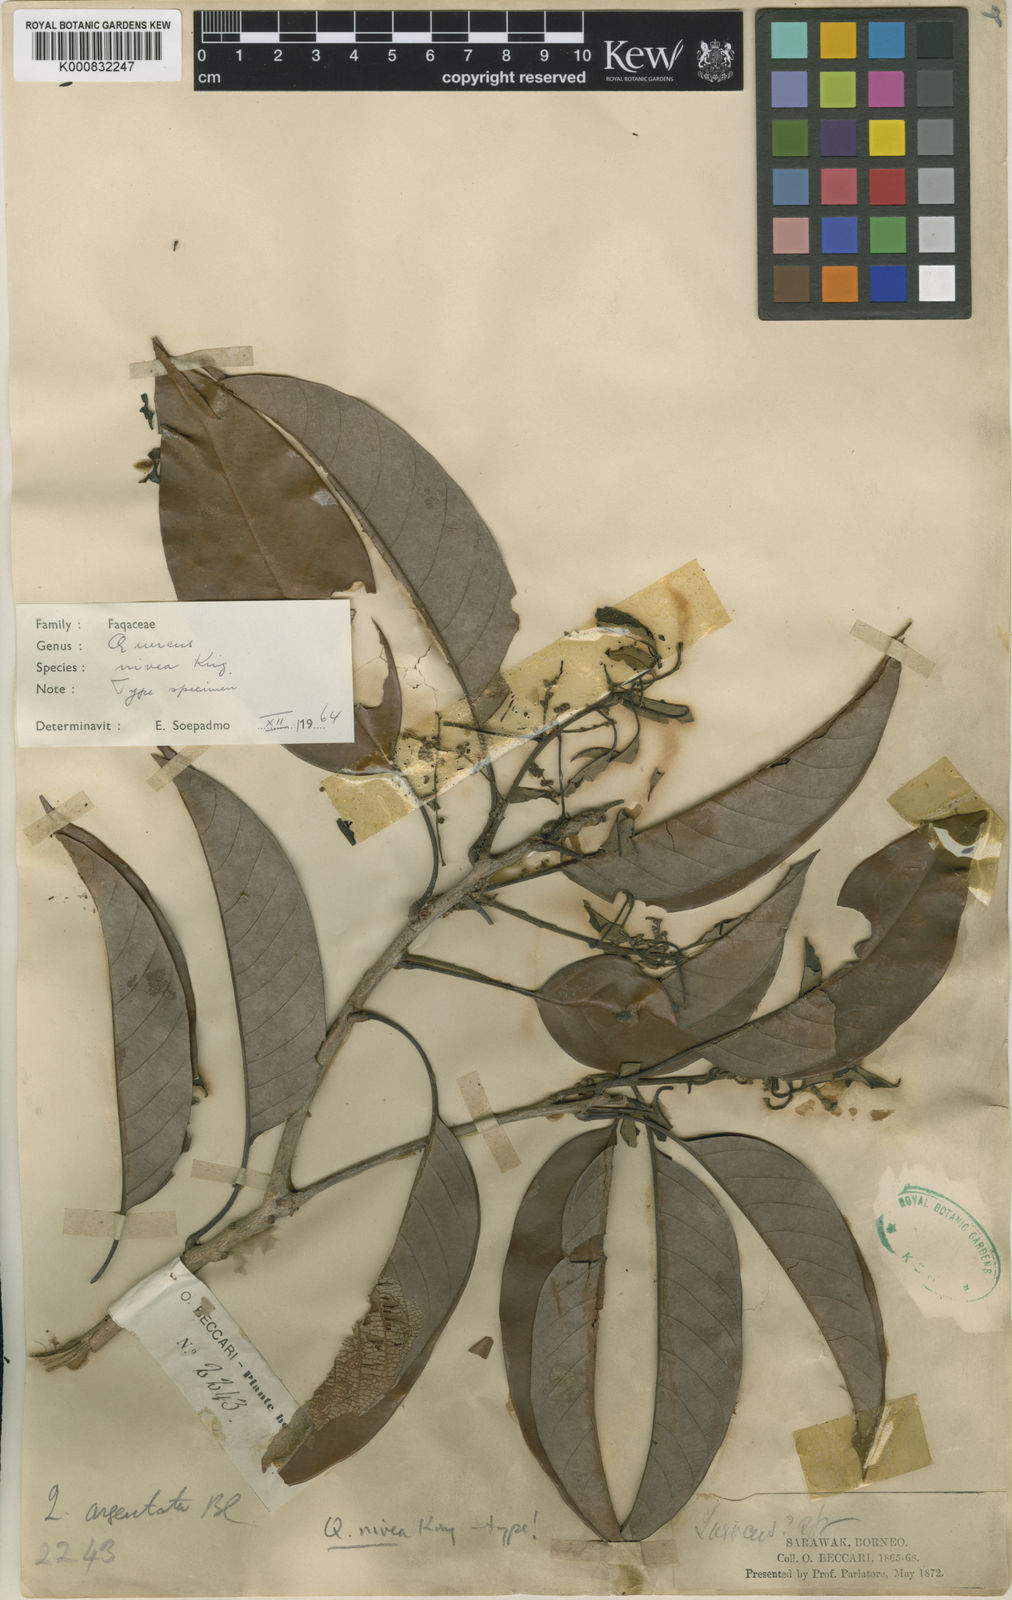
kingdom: Plantae
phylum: Tracheophyta
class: Magnoliopsida
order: Fagales
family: Fagaceae
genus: Quercus
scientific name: Quercus nivea
